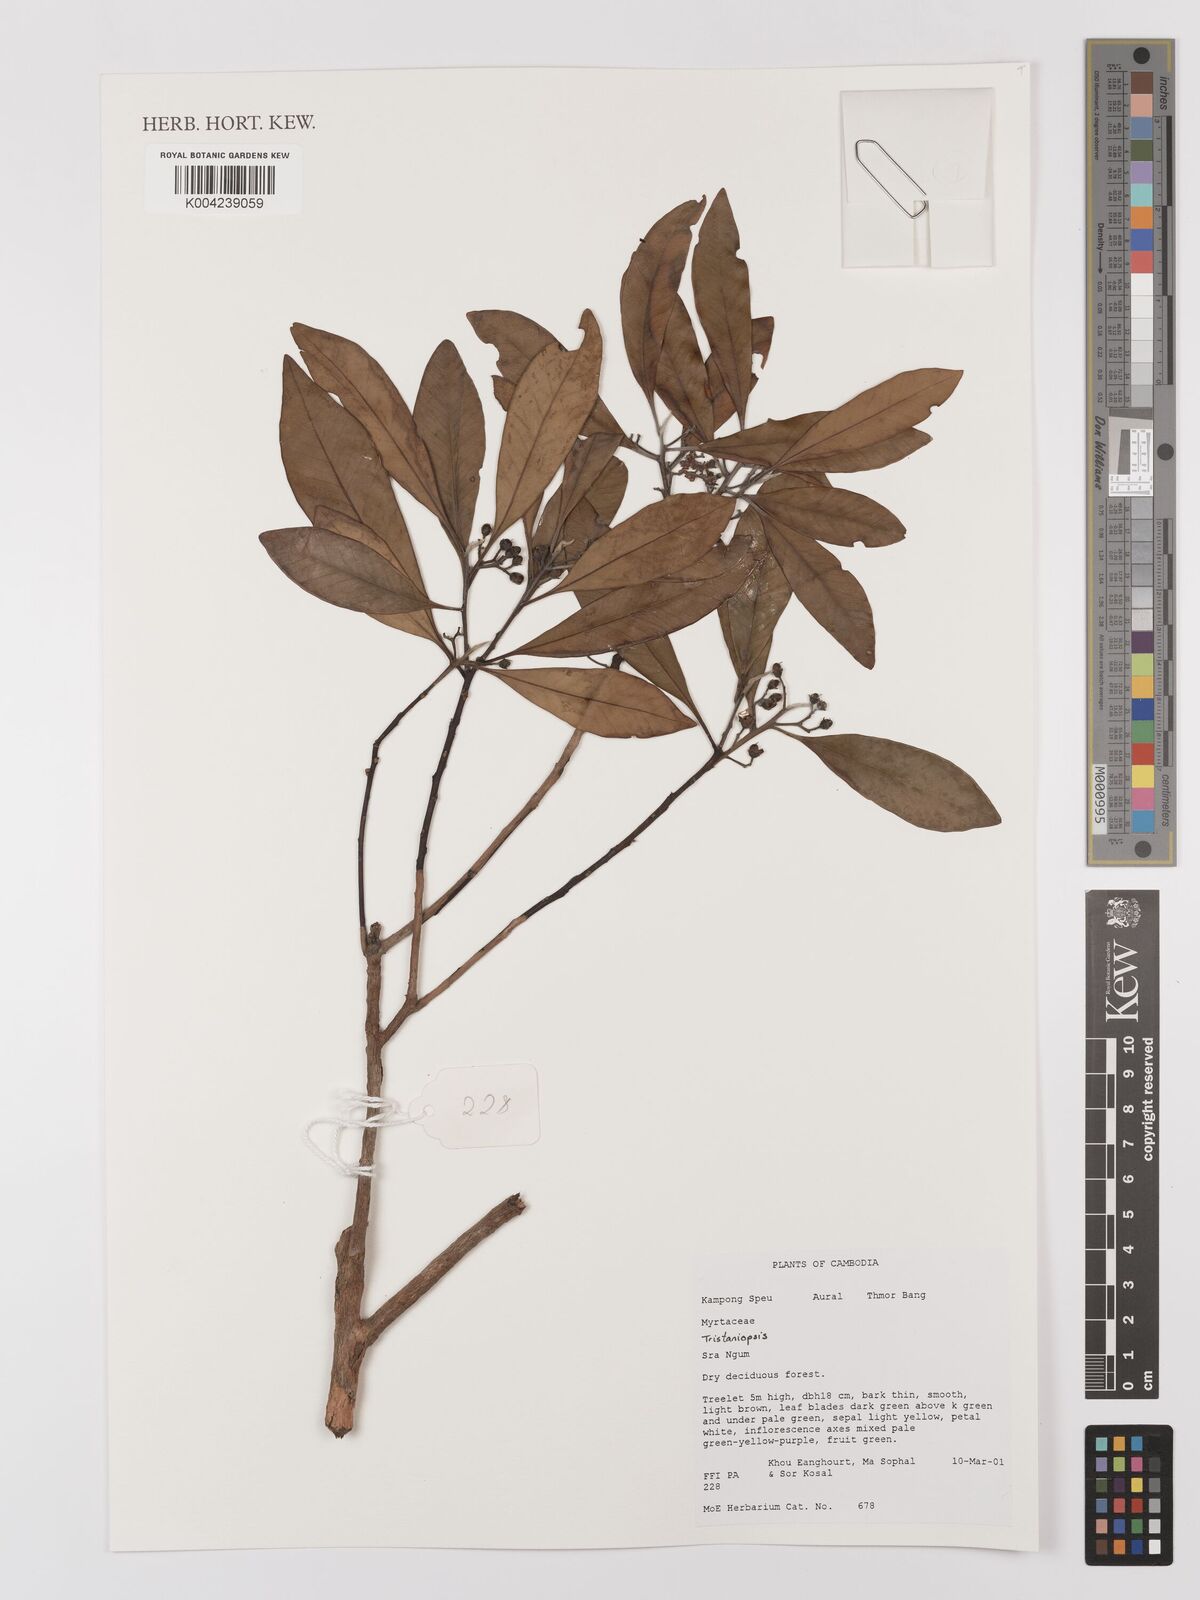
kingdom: Plantae
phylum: Tracheophyta
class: Magnoliopsida
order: Myrtales
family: Myrtaceae
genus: Tristaniopsis
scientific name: Tristaniopsis
